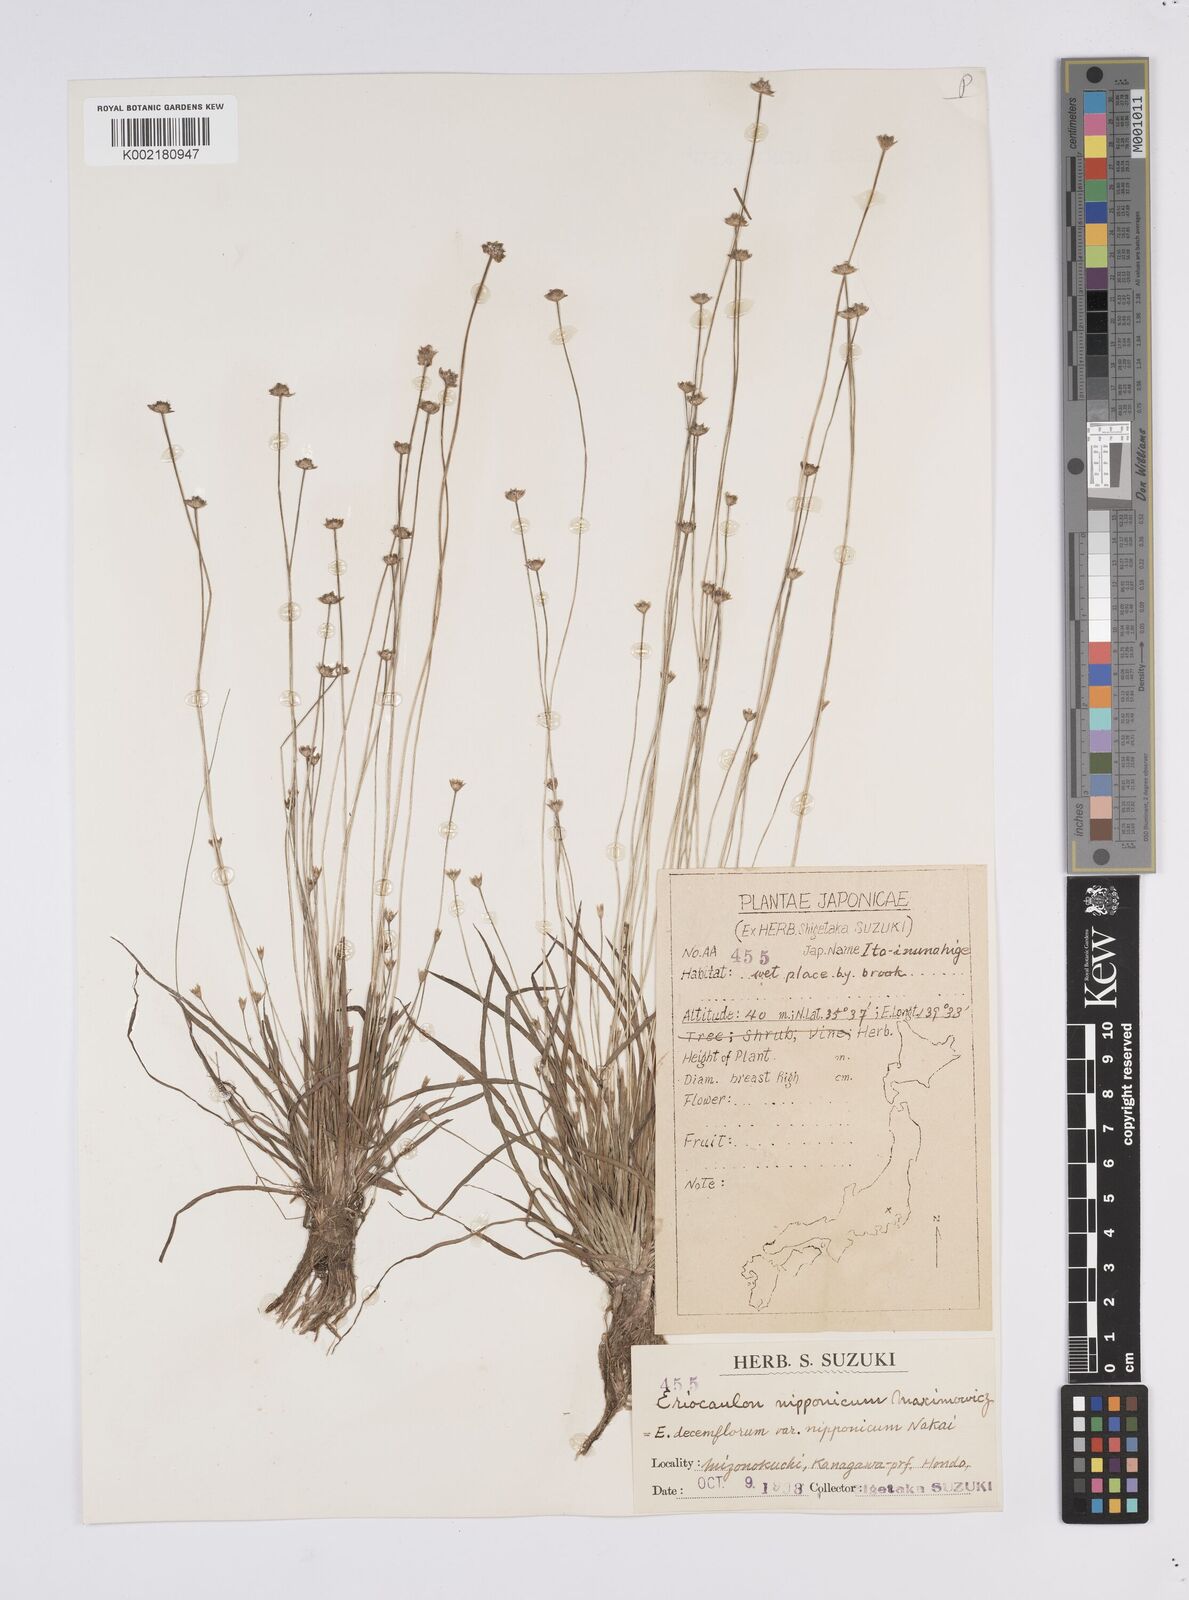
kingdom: Plantae
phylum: Tracheophyta
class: Liliopsida
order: Poales
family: Eriocaulaceae
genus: Eriocaulon
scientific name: Eriocaulon decemflorum
